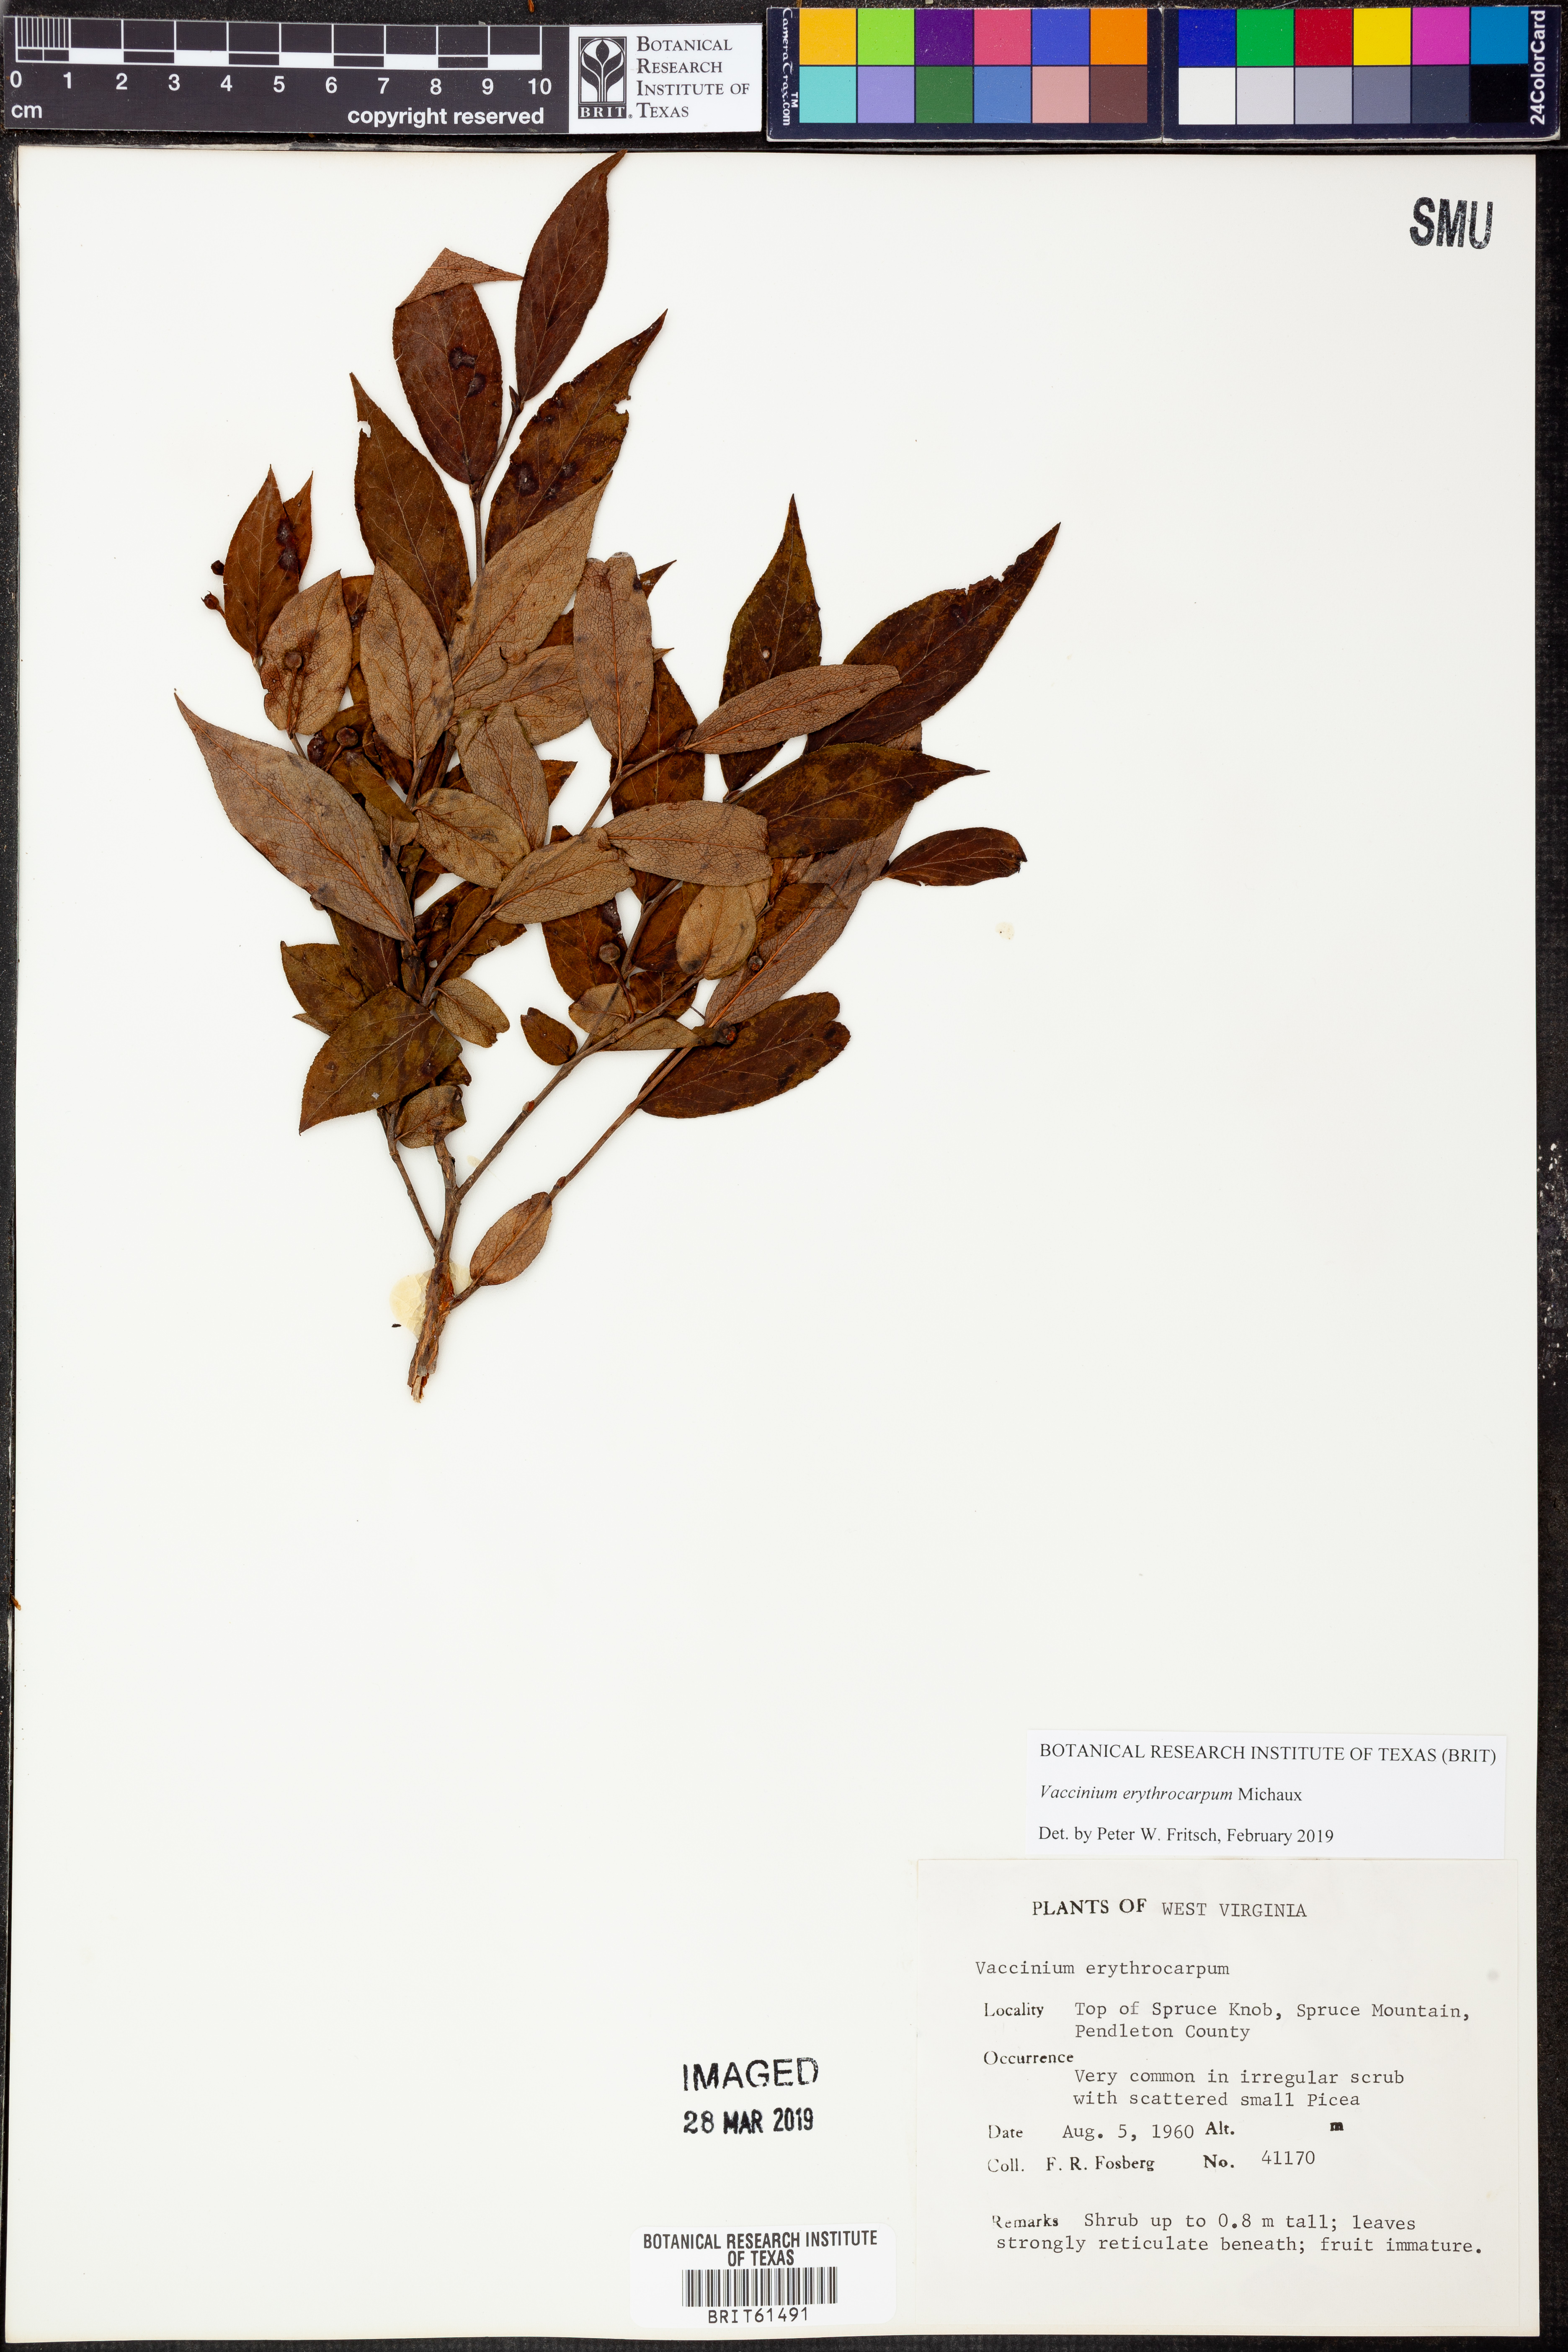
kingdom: Plantae
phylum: Tracheophyta
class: Magnoliopsida
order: Ericales
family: Ericaceae
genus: Vaccinium
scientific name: Vaccinium erythrocarpum
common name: Bearberry
